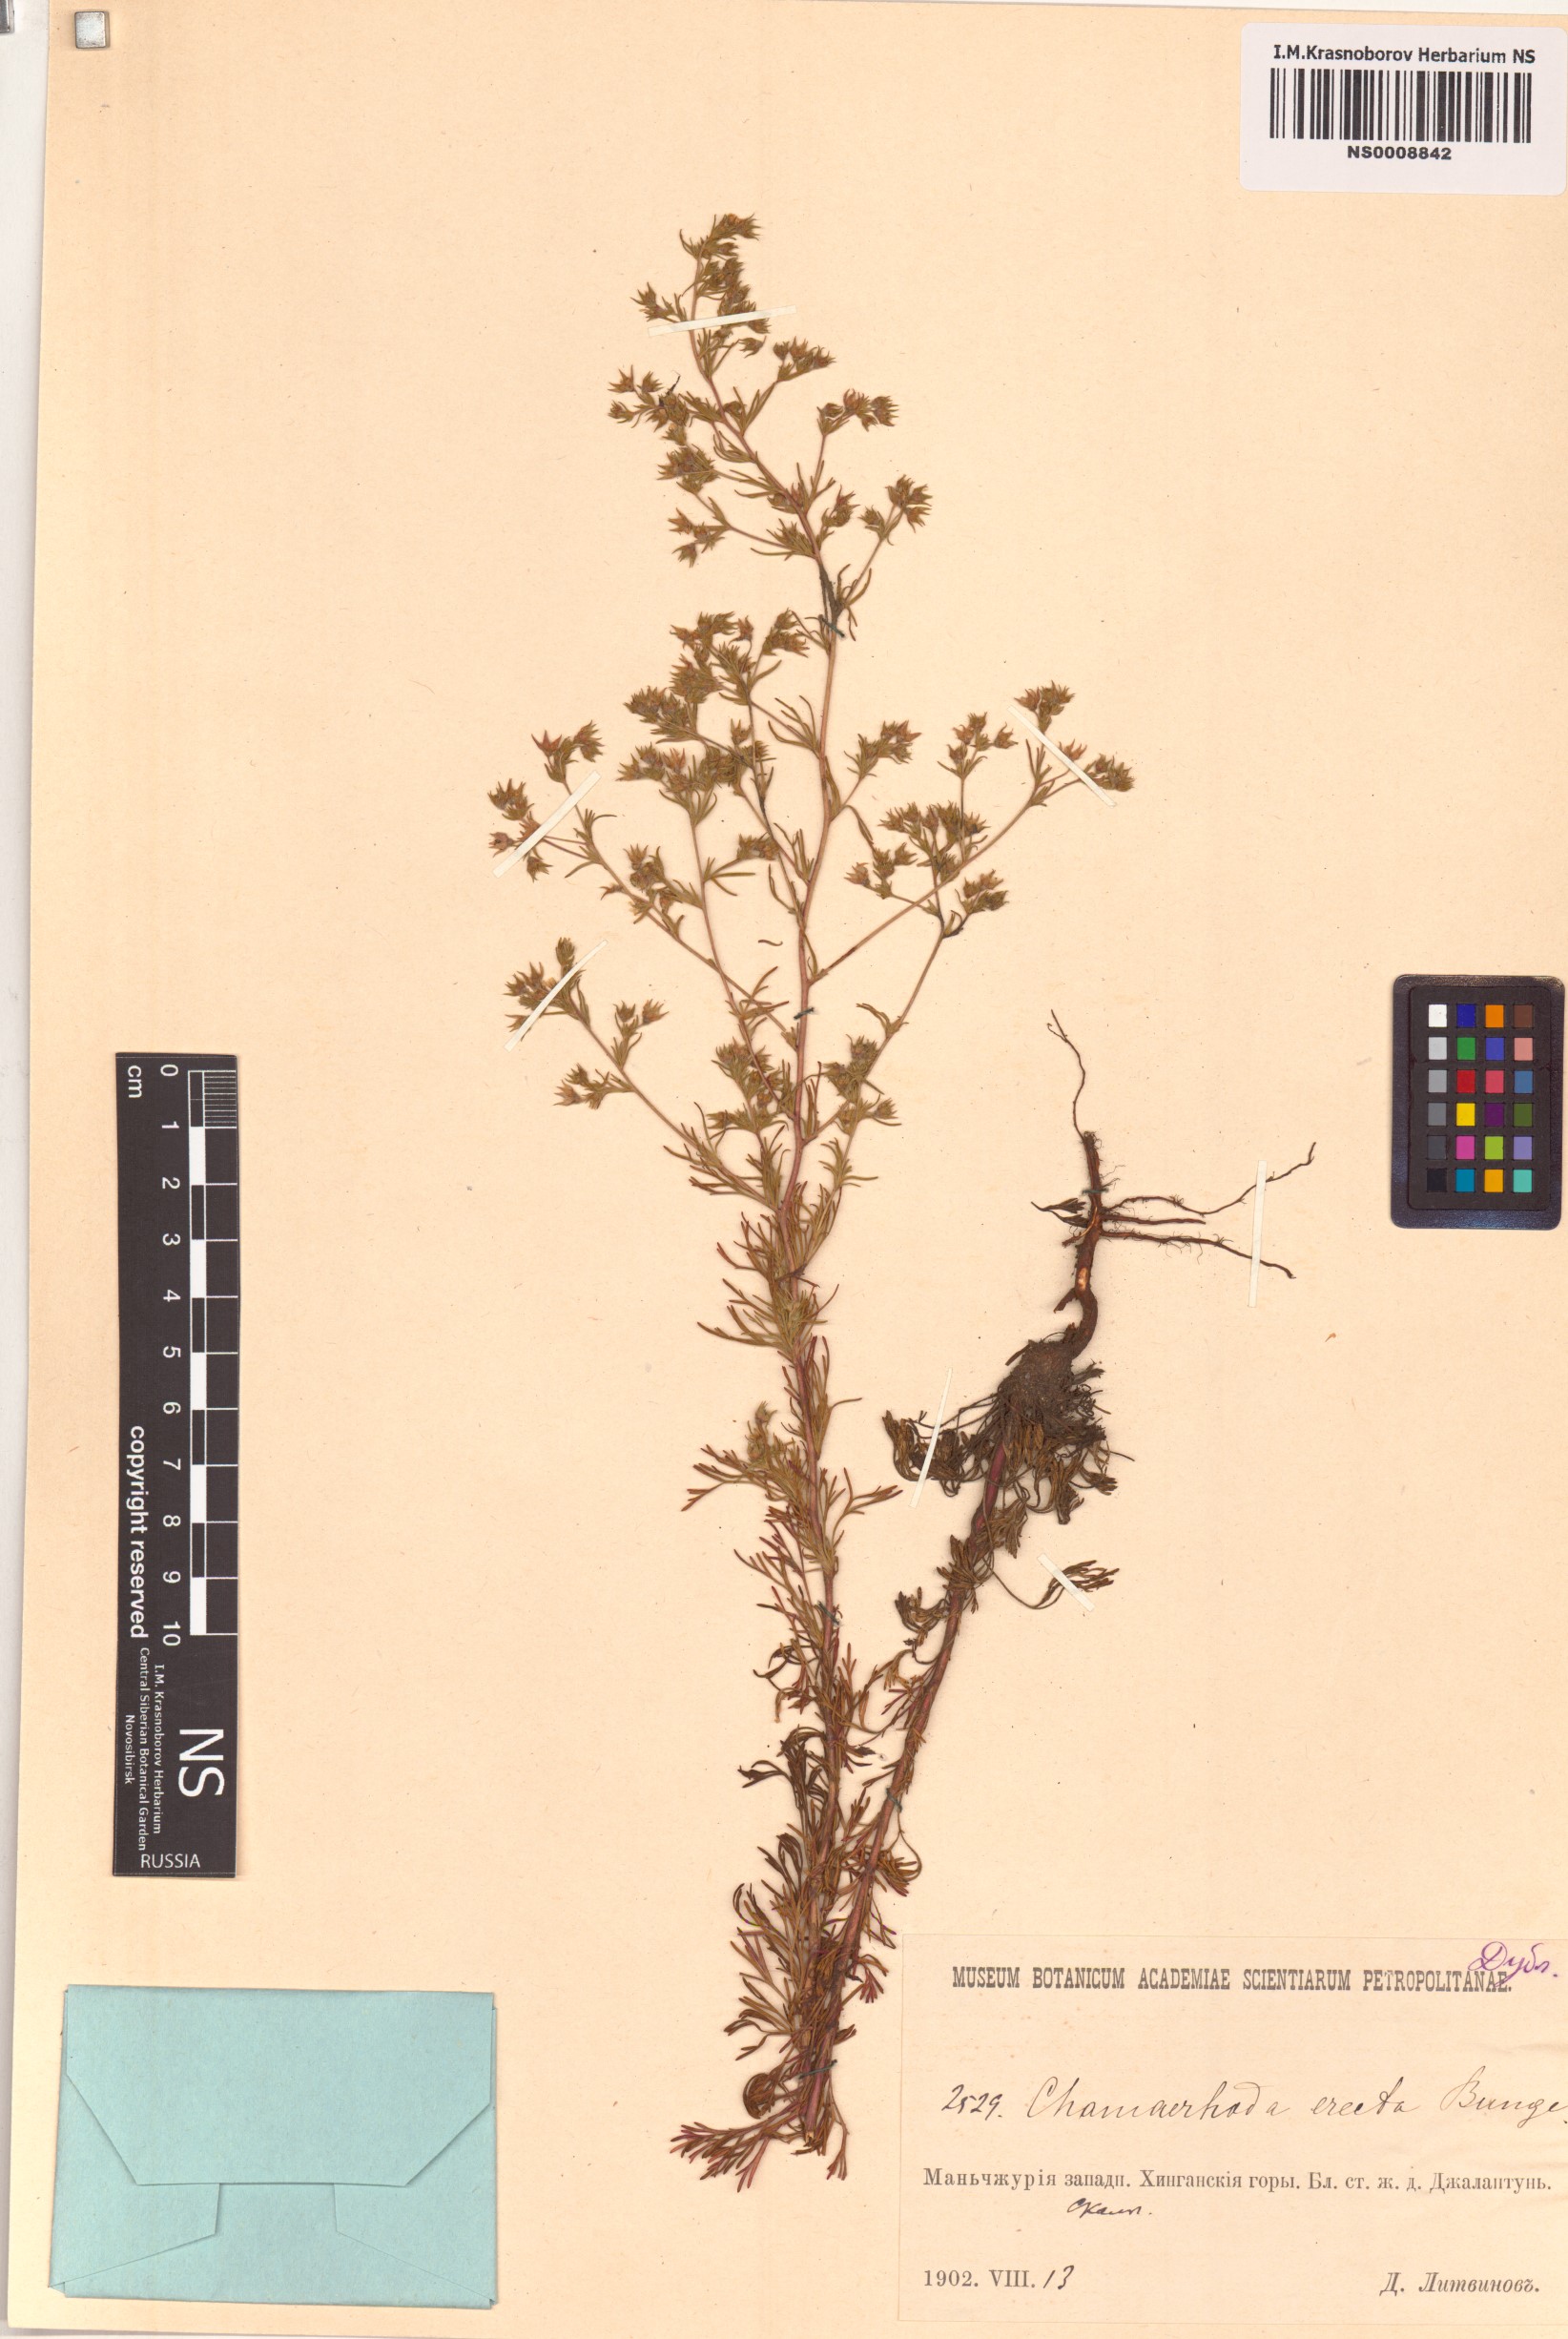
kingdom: Plantae
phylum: Tracheophyta
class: Magnoliopsida
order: Rosales
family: Rosaceae
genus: Chamaerhodos
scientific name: Chamaerhodos erecta
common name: American chamaerhodos
